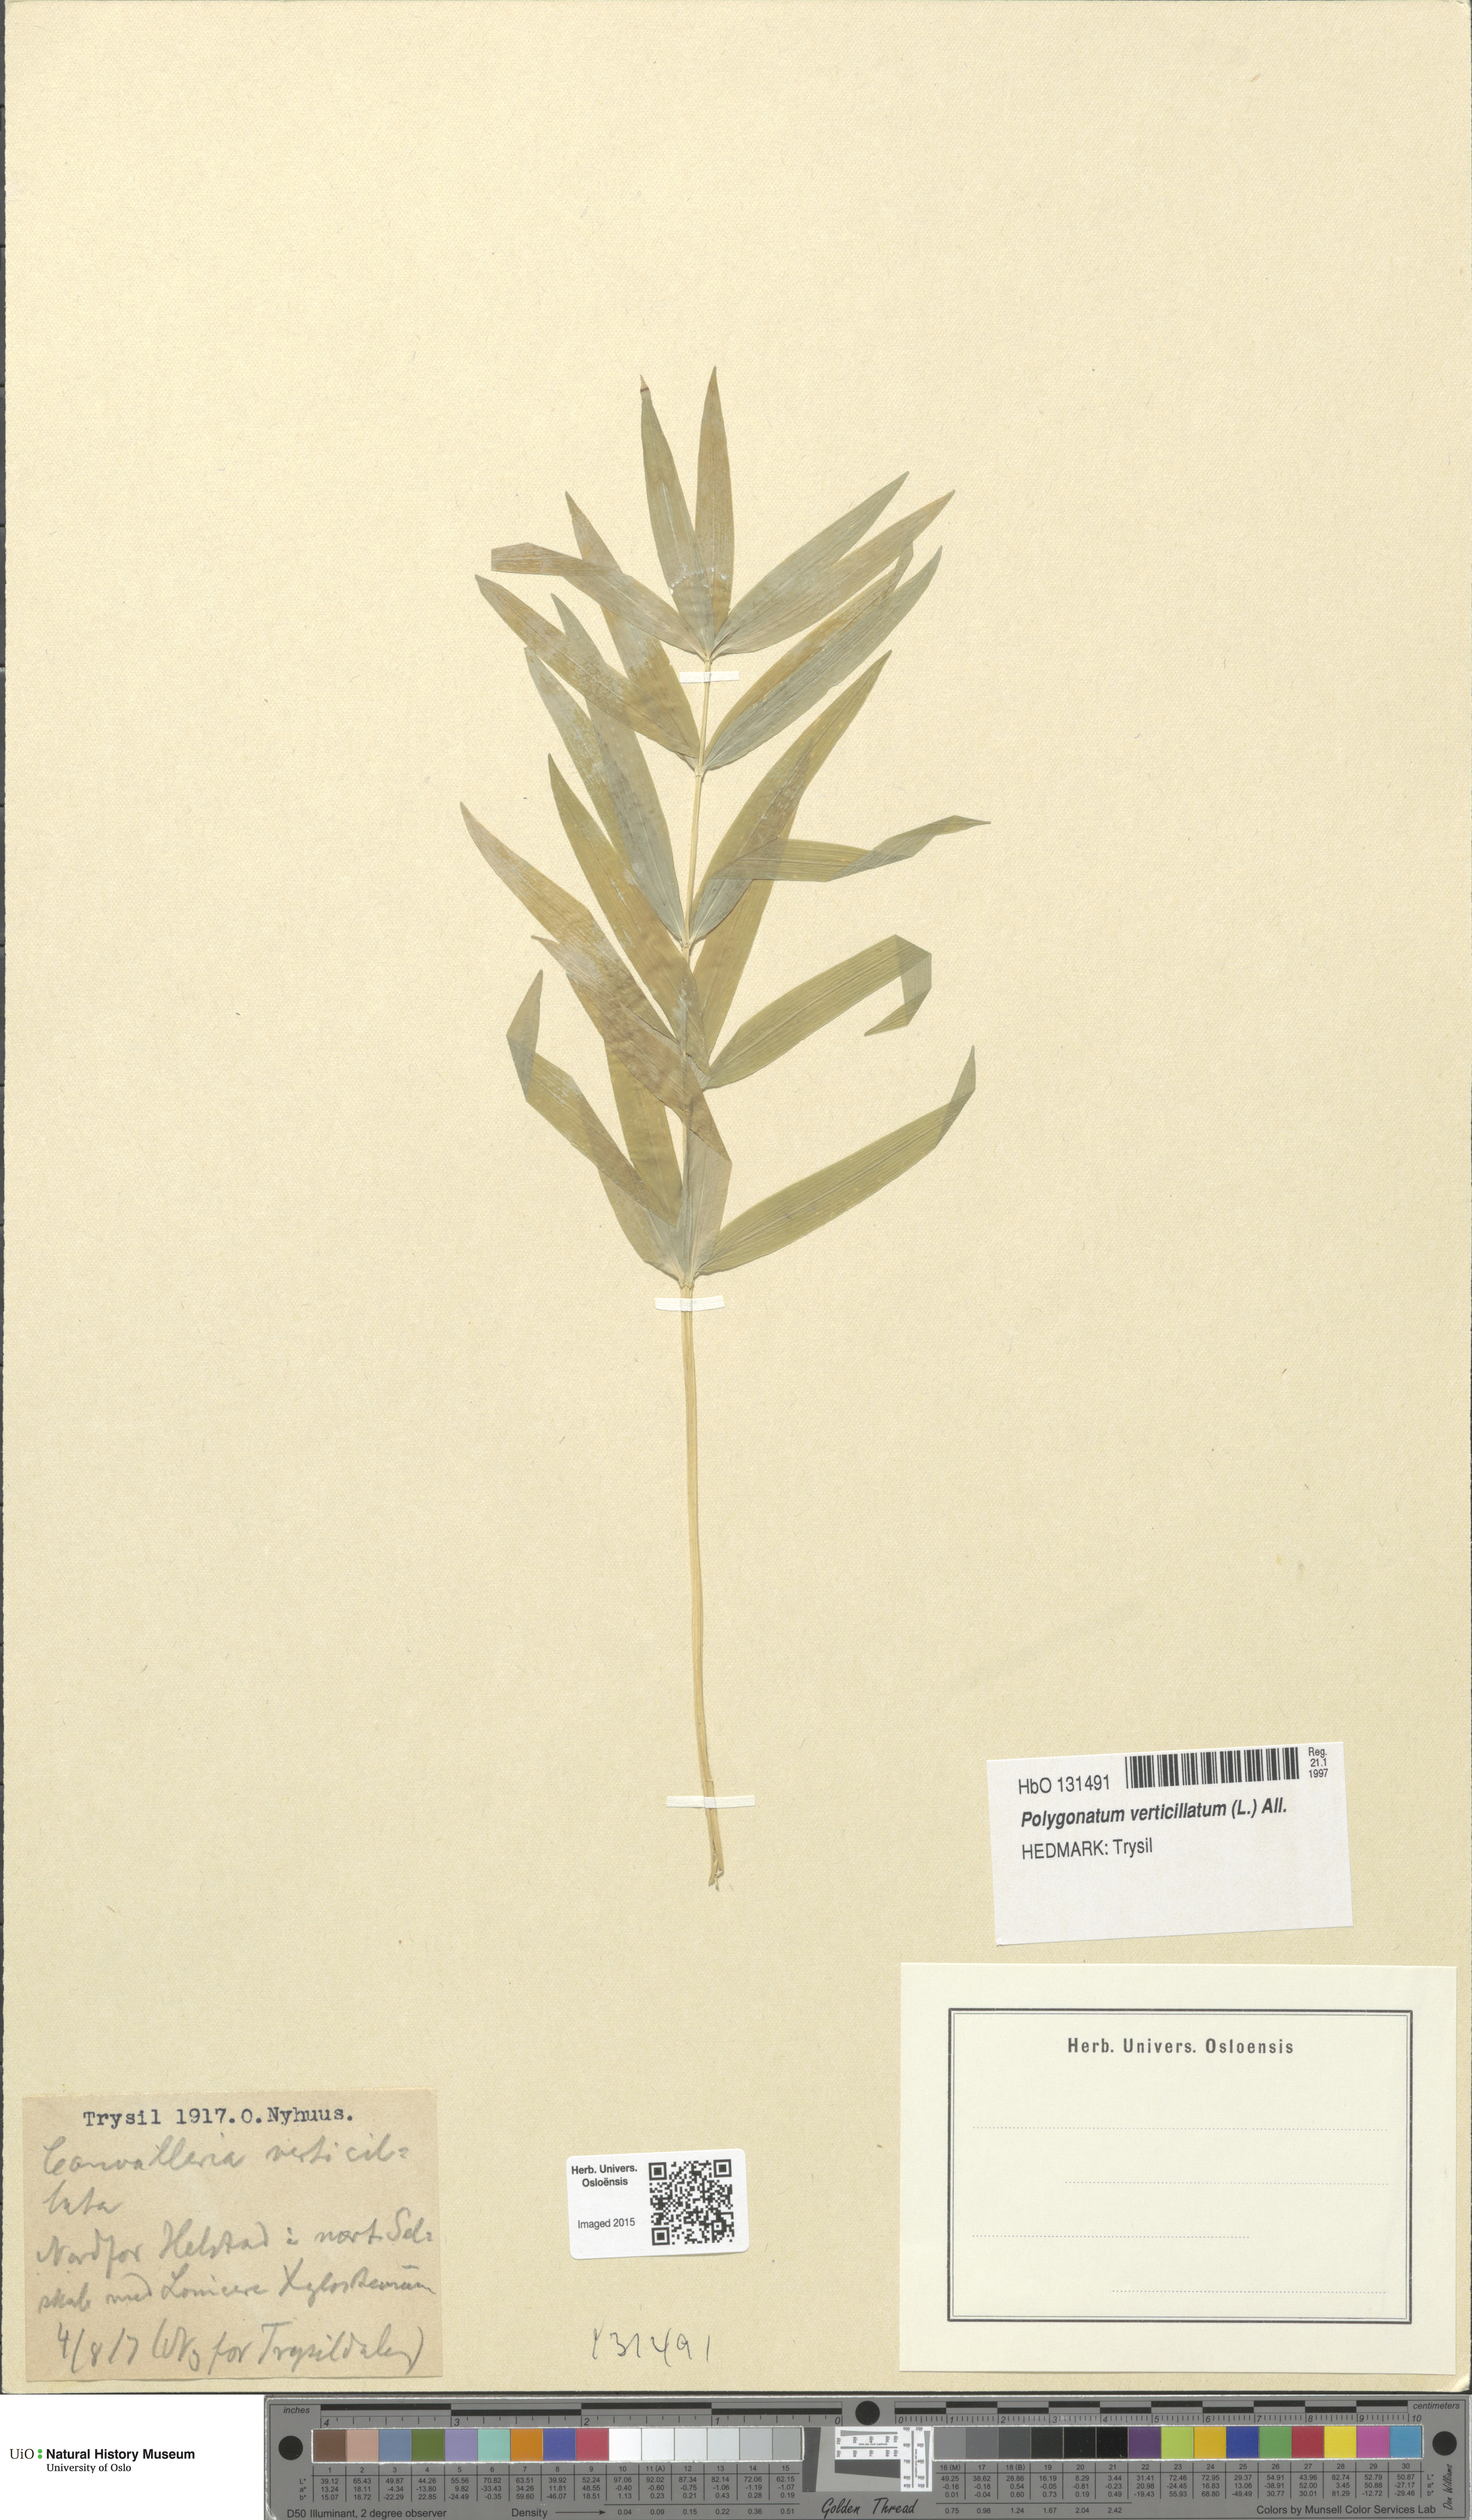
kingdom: Plantae
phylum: Tracheophyta
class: Liliopsida
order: Asparagales
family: Asparagaceae
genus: Polygonatum
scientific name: Polygonatum verticillatum
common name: Whorled solomon's-seal
